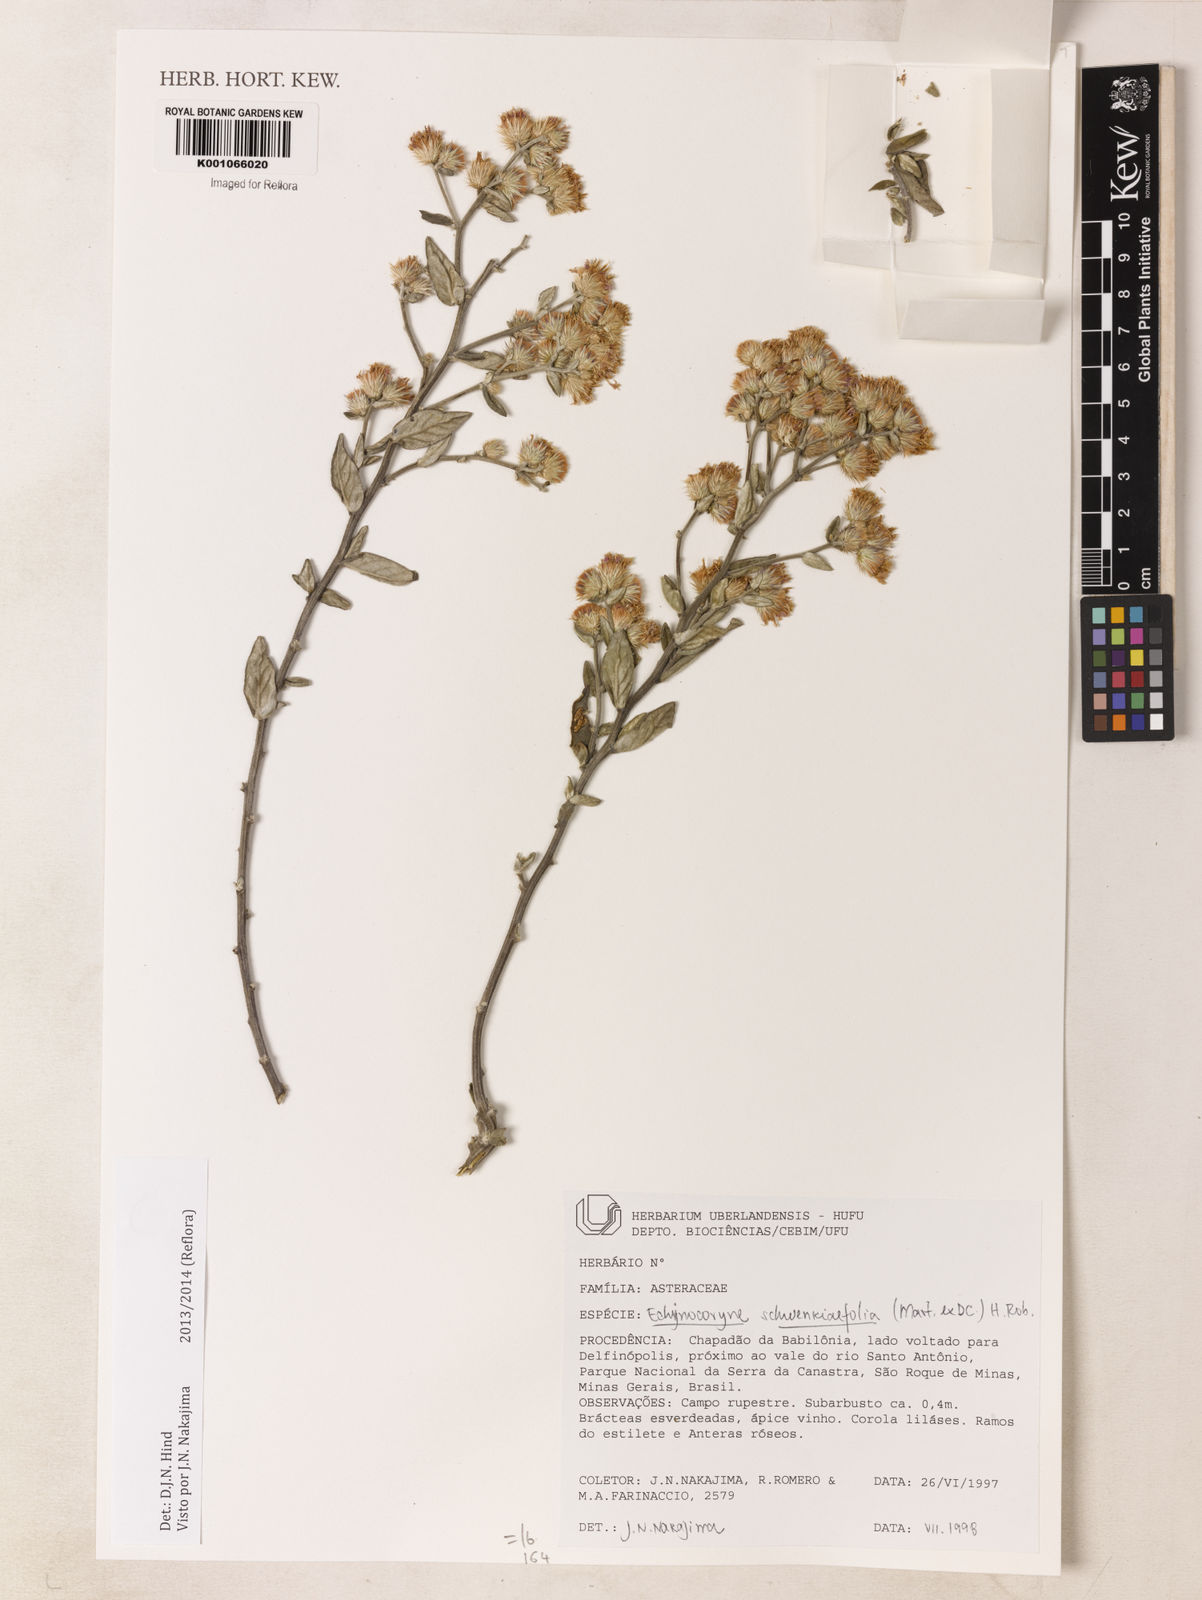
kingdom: Plantae
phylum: Tracheophyta
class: Magnoliopsida
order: Asterales
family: Asteraceae
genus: Vernonia
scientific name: Vernonia
